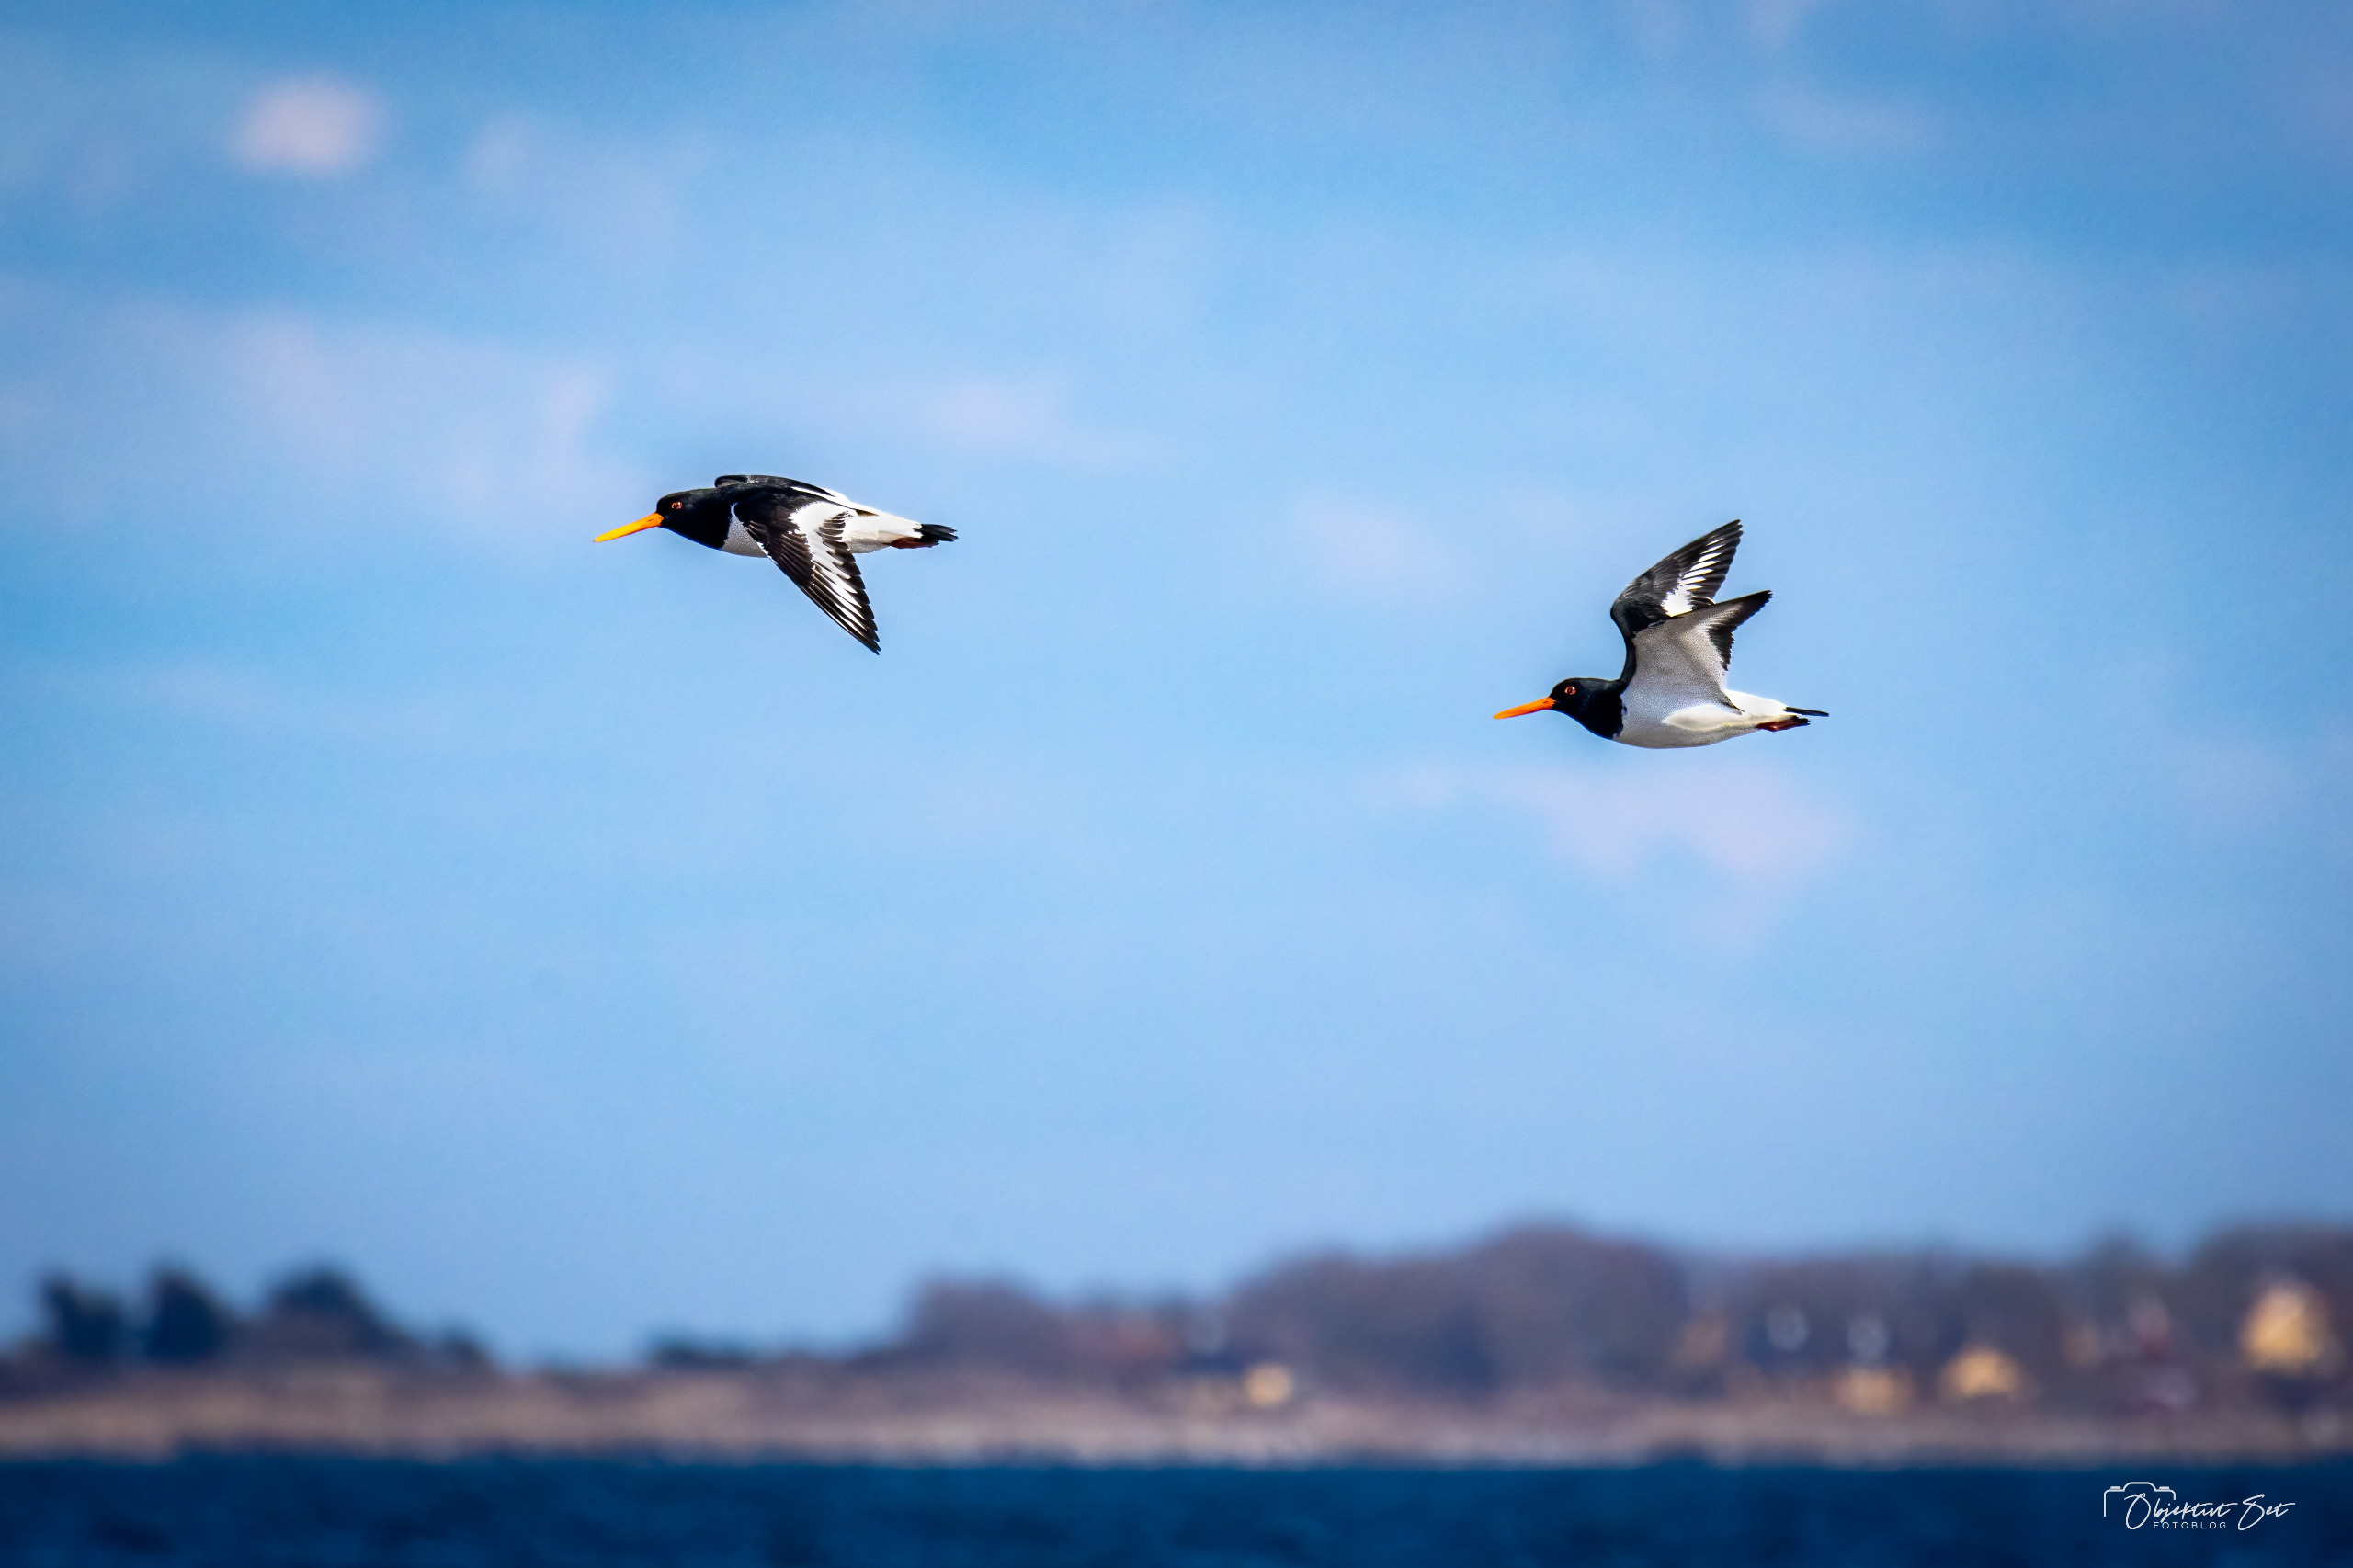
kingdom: Animalia
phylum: Chordata
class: Aves
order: Charadriiformes
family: Haematopodidae
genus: Haematopus
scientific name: Haematopus ostralegus
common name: Strandskade
